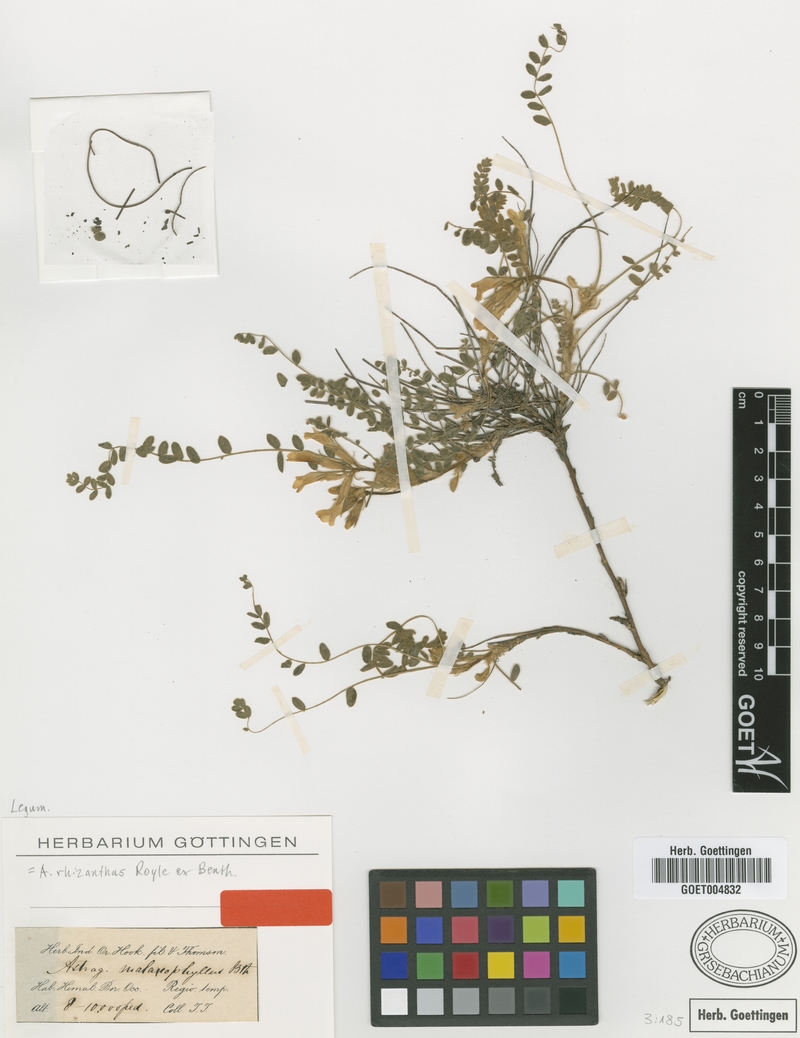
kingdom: Plantae
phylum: Tracheophyta
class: Magnoliopsida
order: Fabales
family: Fabaceae
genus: Astragalus
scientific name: Astragalus rhizanthus
